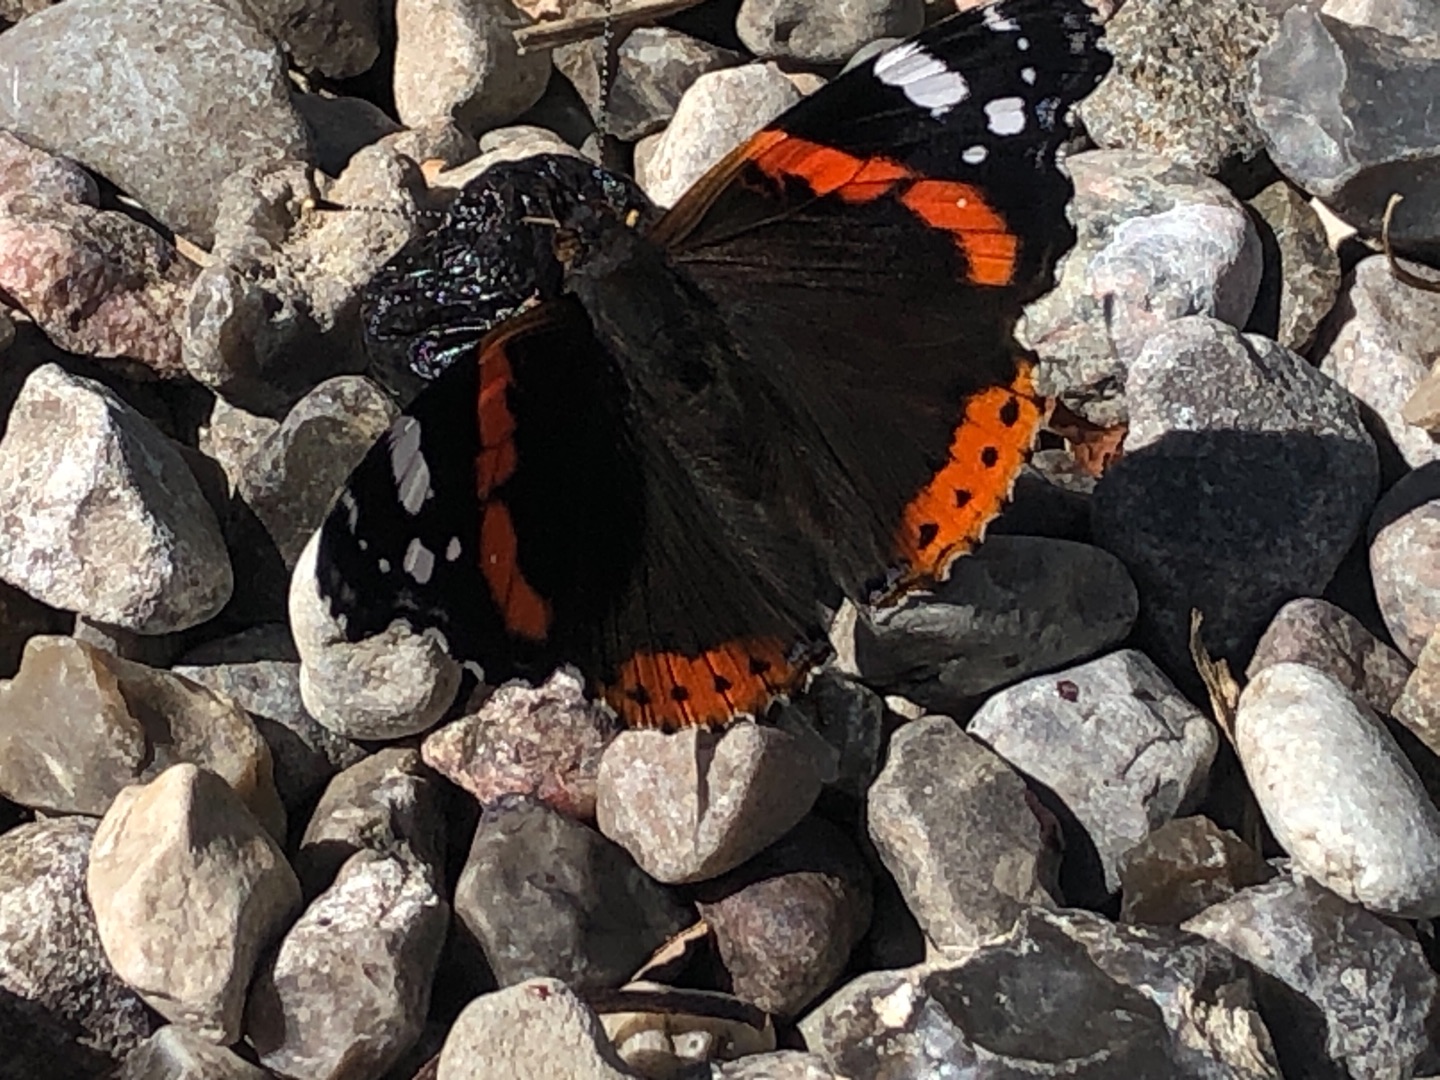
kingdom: Animalia
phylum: Arthropoda
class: Insecta
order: Lepidoptera
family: Nymphalidae
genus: Vanessa
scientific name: Vanessa atalanta
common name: Admiral
